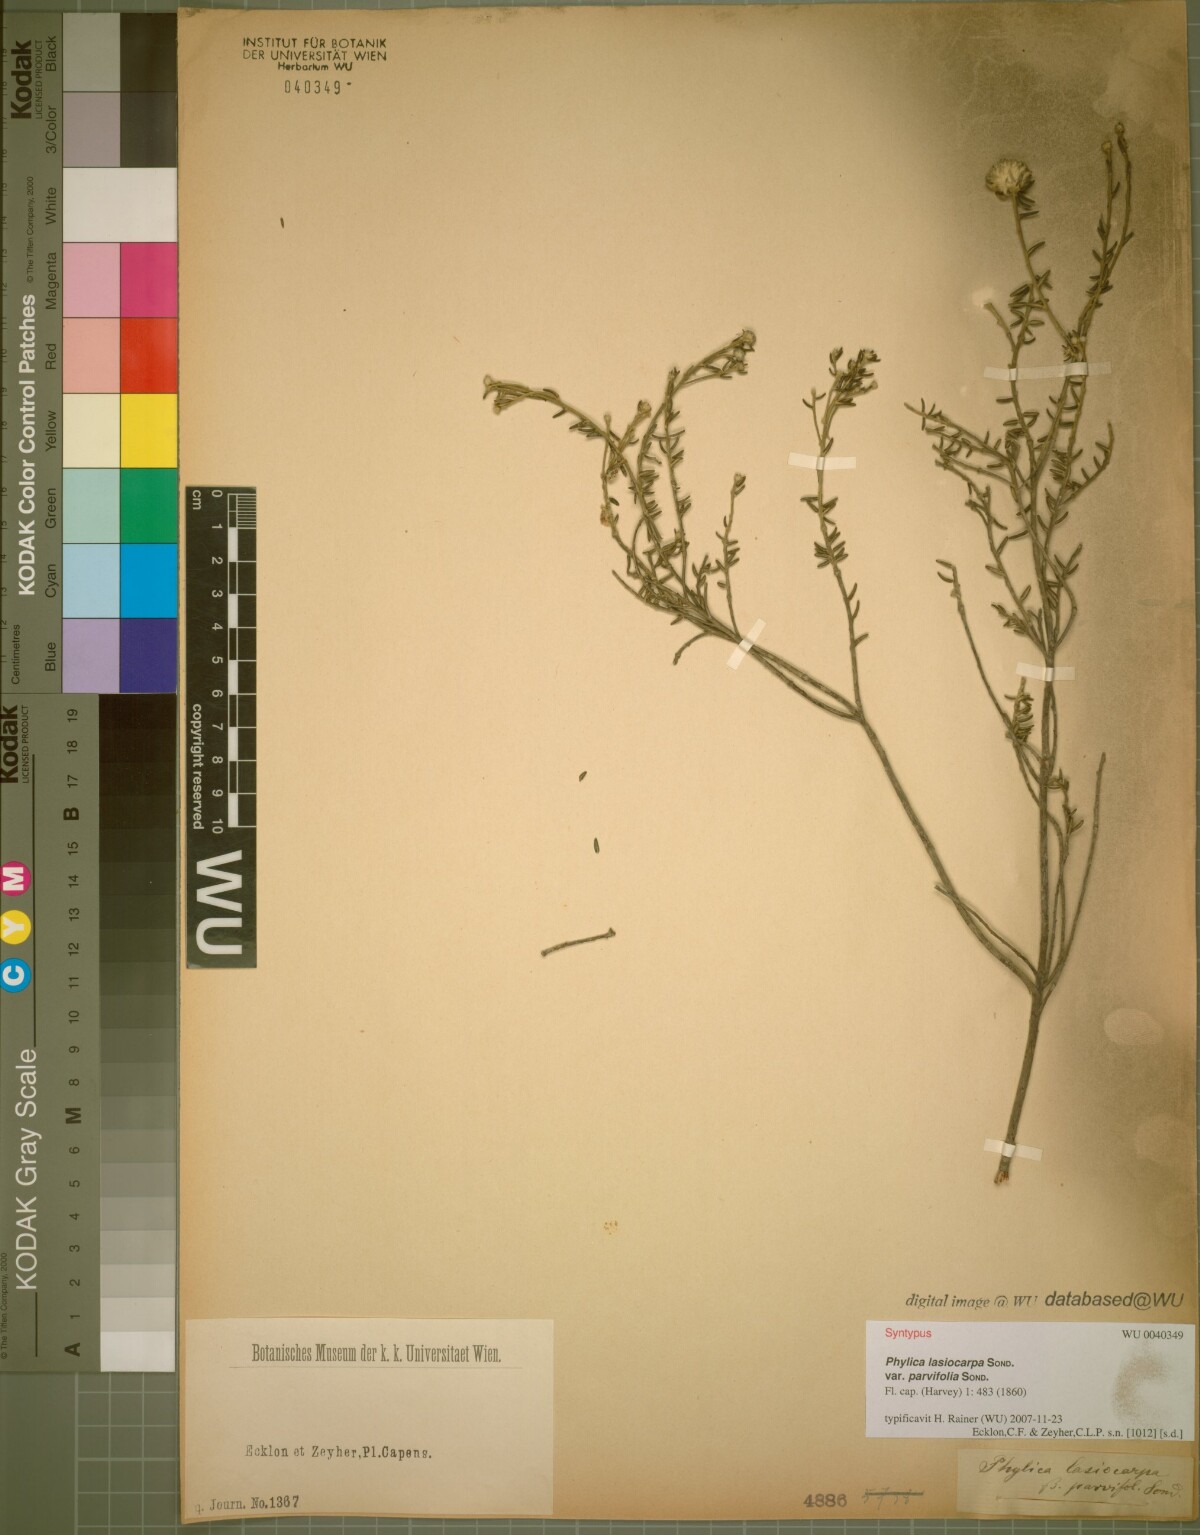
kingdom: Plantae
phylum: Tracheophyta
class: Magnoliopsida
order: Rosales
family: Rhamnaceae
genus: Phylica
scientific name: Phylica lasiocarpa
